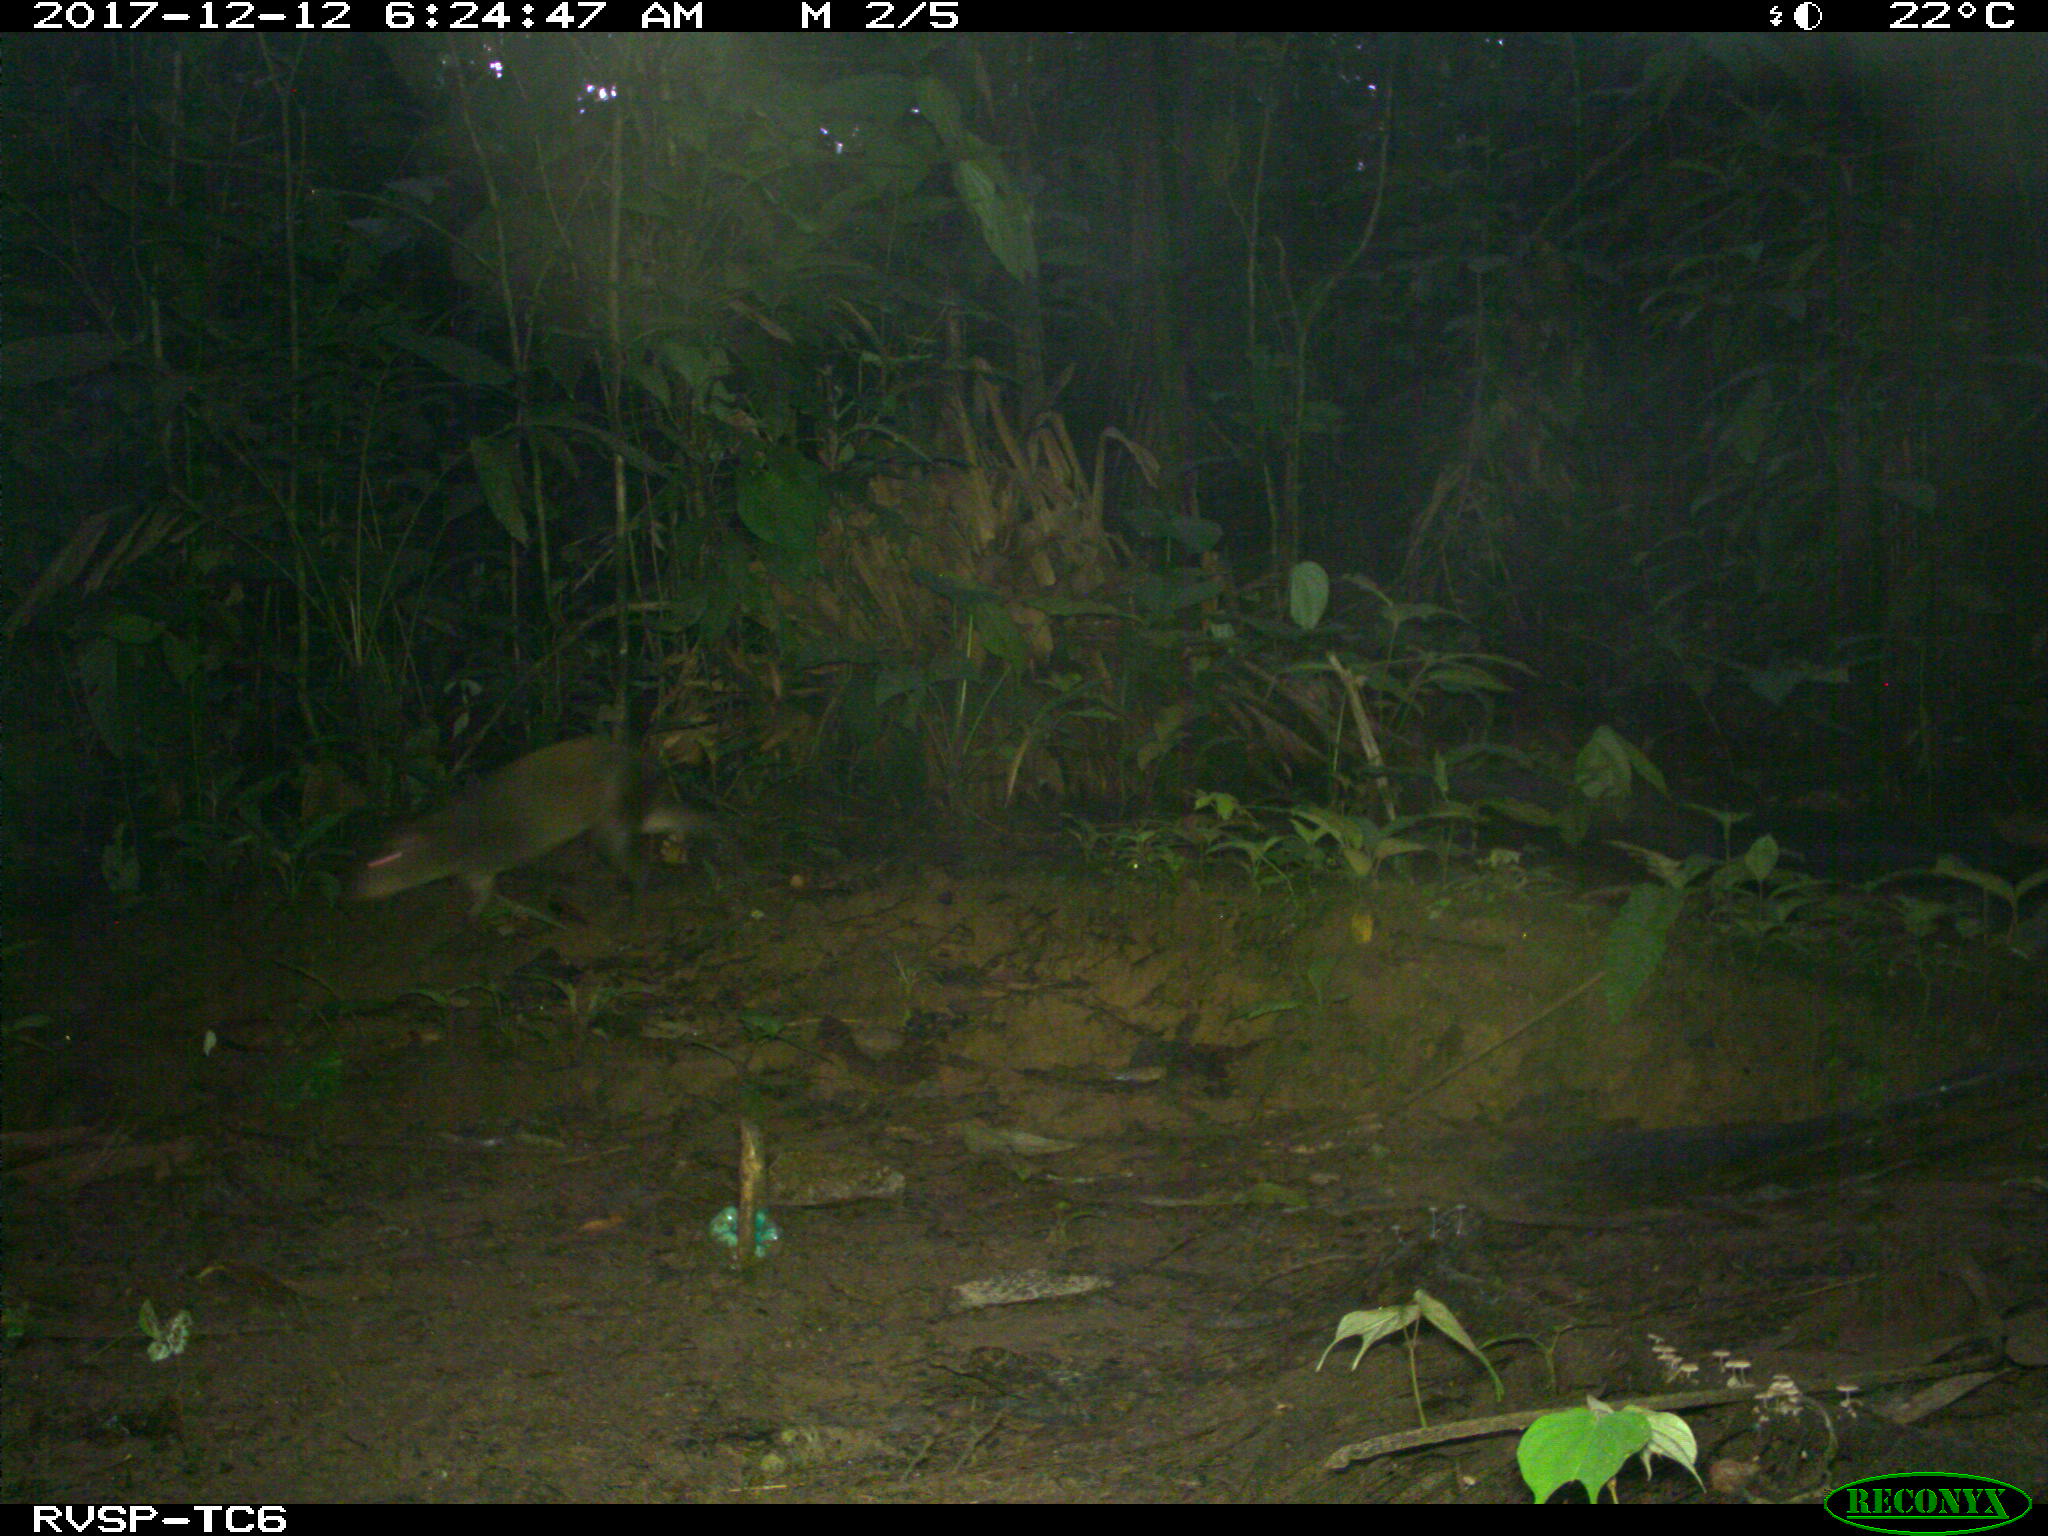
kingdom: Animalia
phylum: Chordata
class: Mammalia
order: Rodentia
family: Dasyproctidae
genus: Dasyprocta
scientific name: Dasyprocta punctata
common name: Central american agouti
